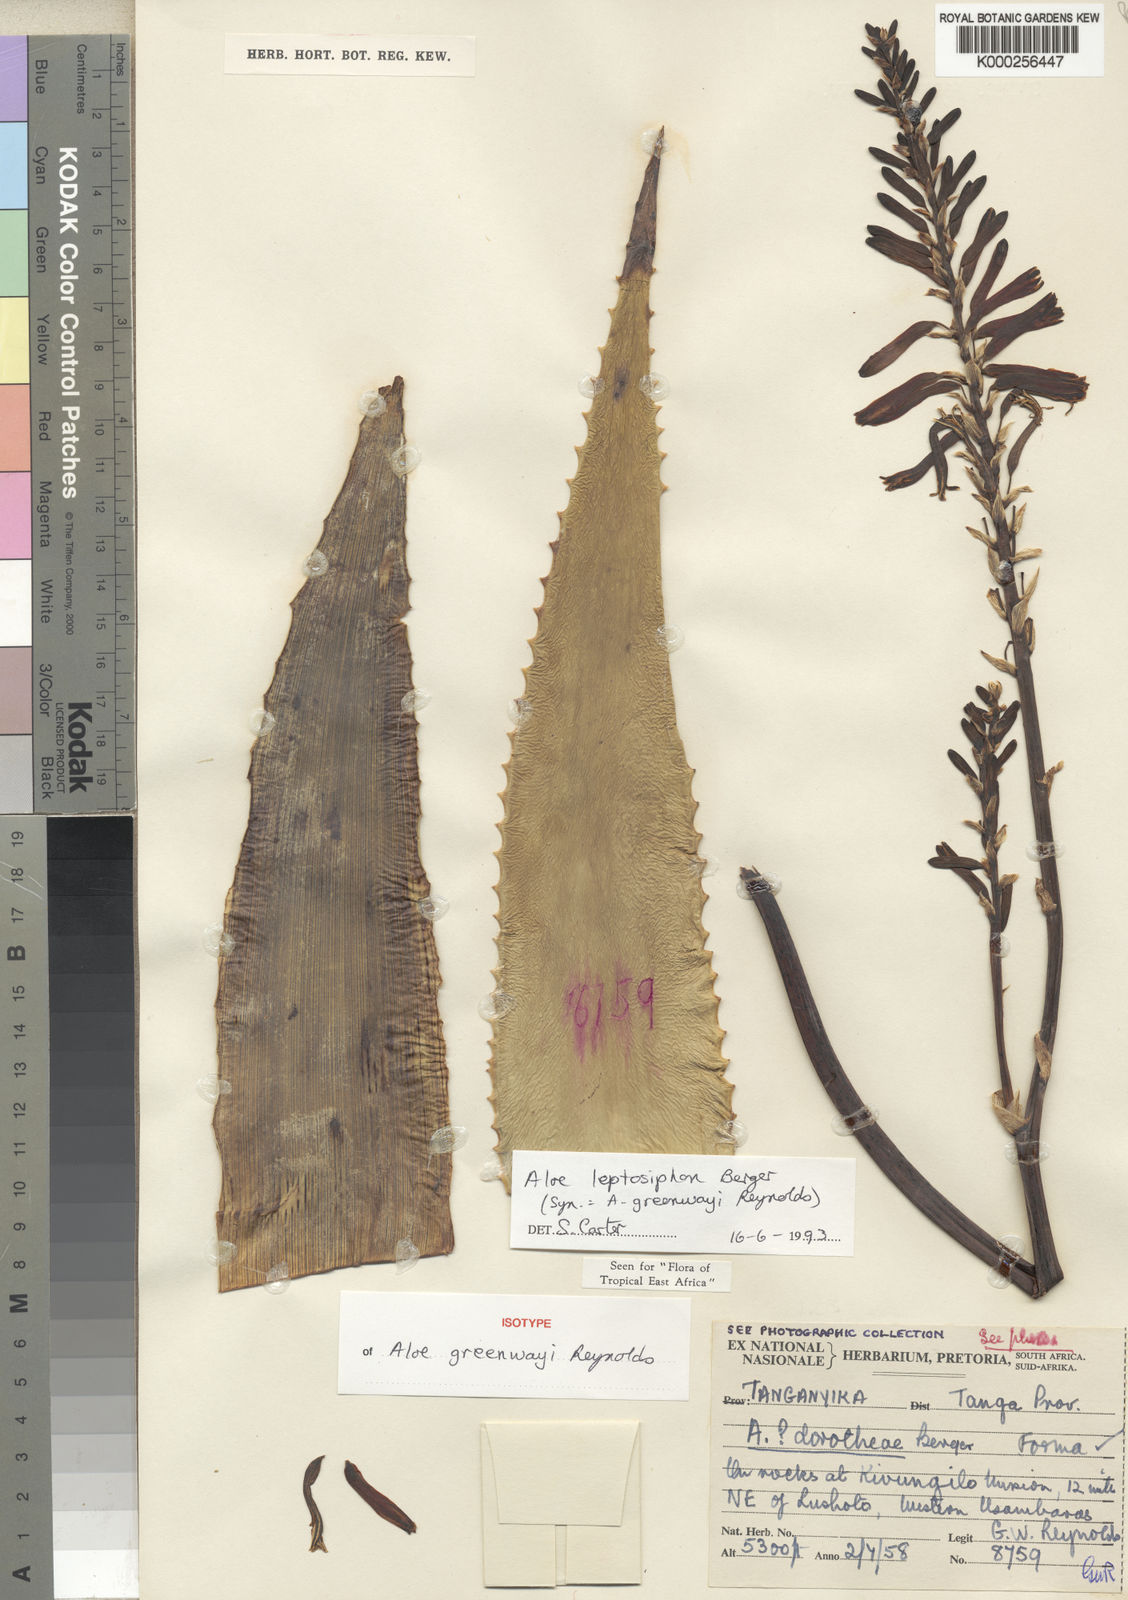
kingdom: Plantae
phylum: Tracheophyta
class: Liliopsida
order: Asparagales
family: Asphodelaceae
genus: Aloe
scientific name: Aloe leptosiphon
